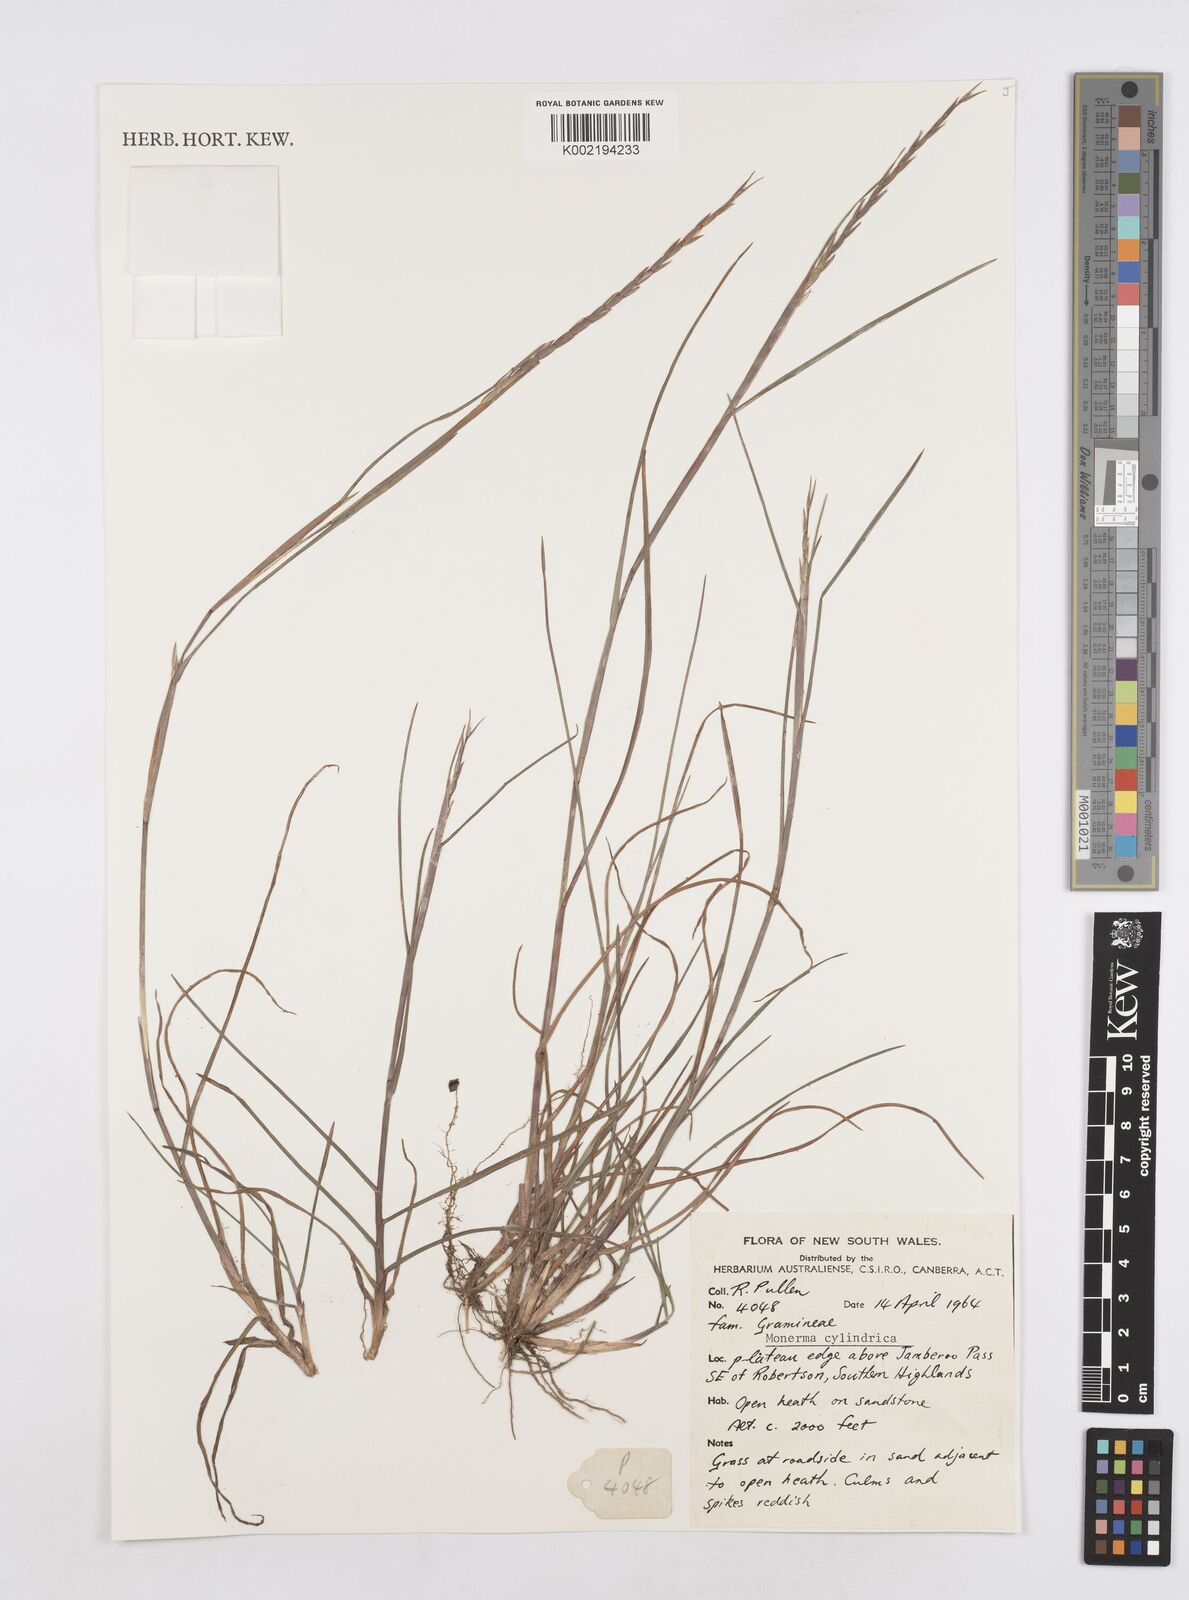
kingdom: Plantae
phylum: Tracheophyta
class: Liliopsida
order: Poales
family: Poaceae
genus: Parapholis
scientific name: Parapholis cylindrica
